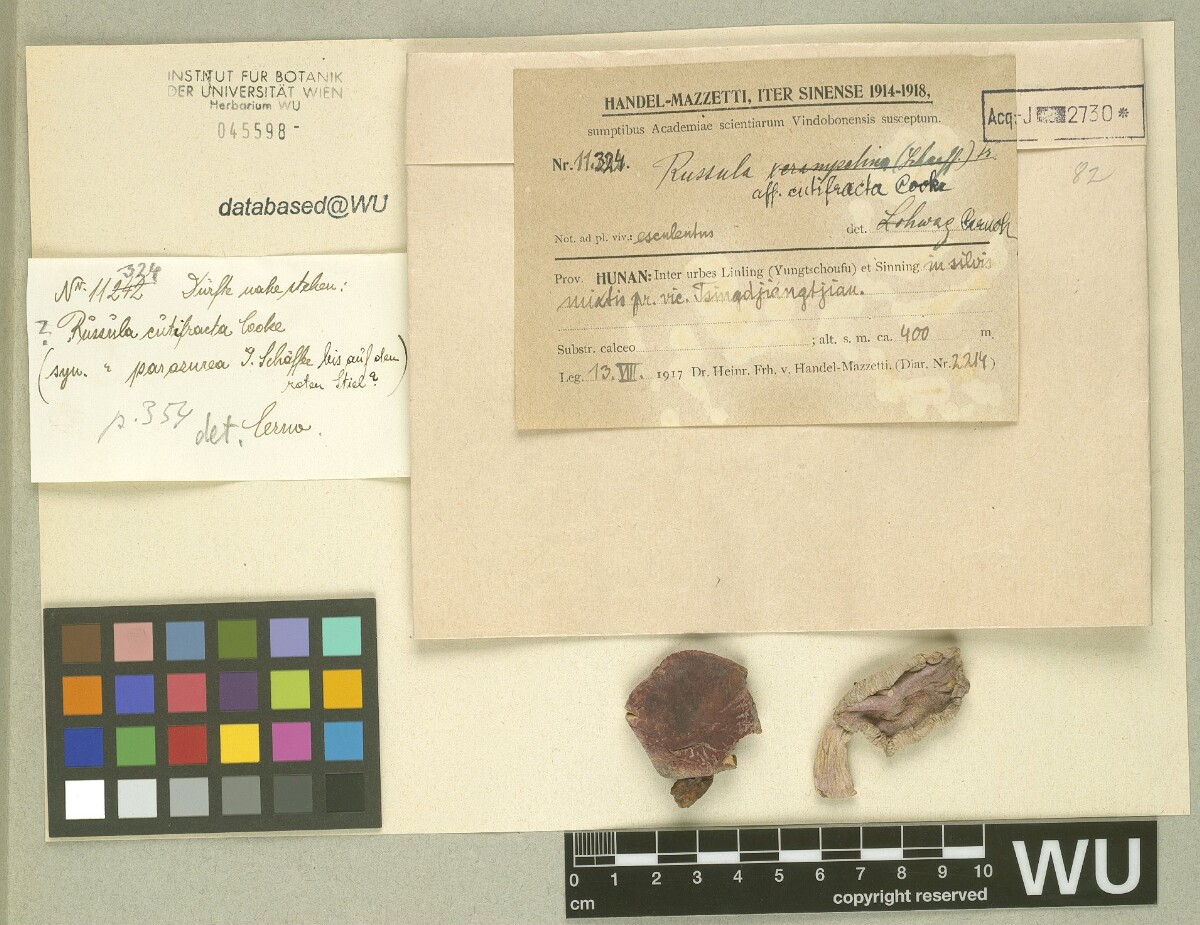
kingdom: Fungi
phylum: Basidiomycota
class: Agaricomycetes
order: Russulales
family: Russulaceae
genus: Russula
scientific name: Russula cyanoxantha
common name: Charcoal burner
